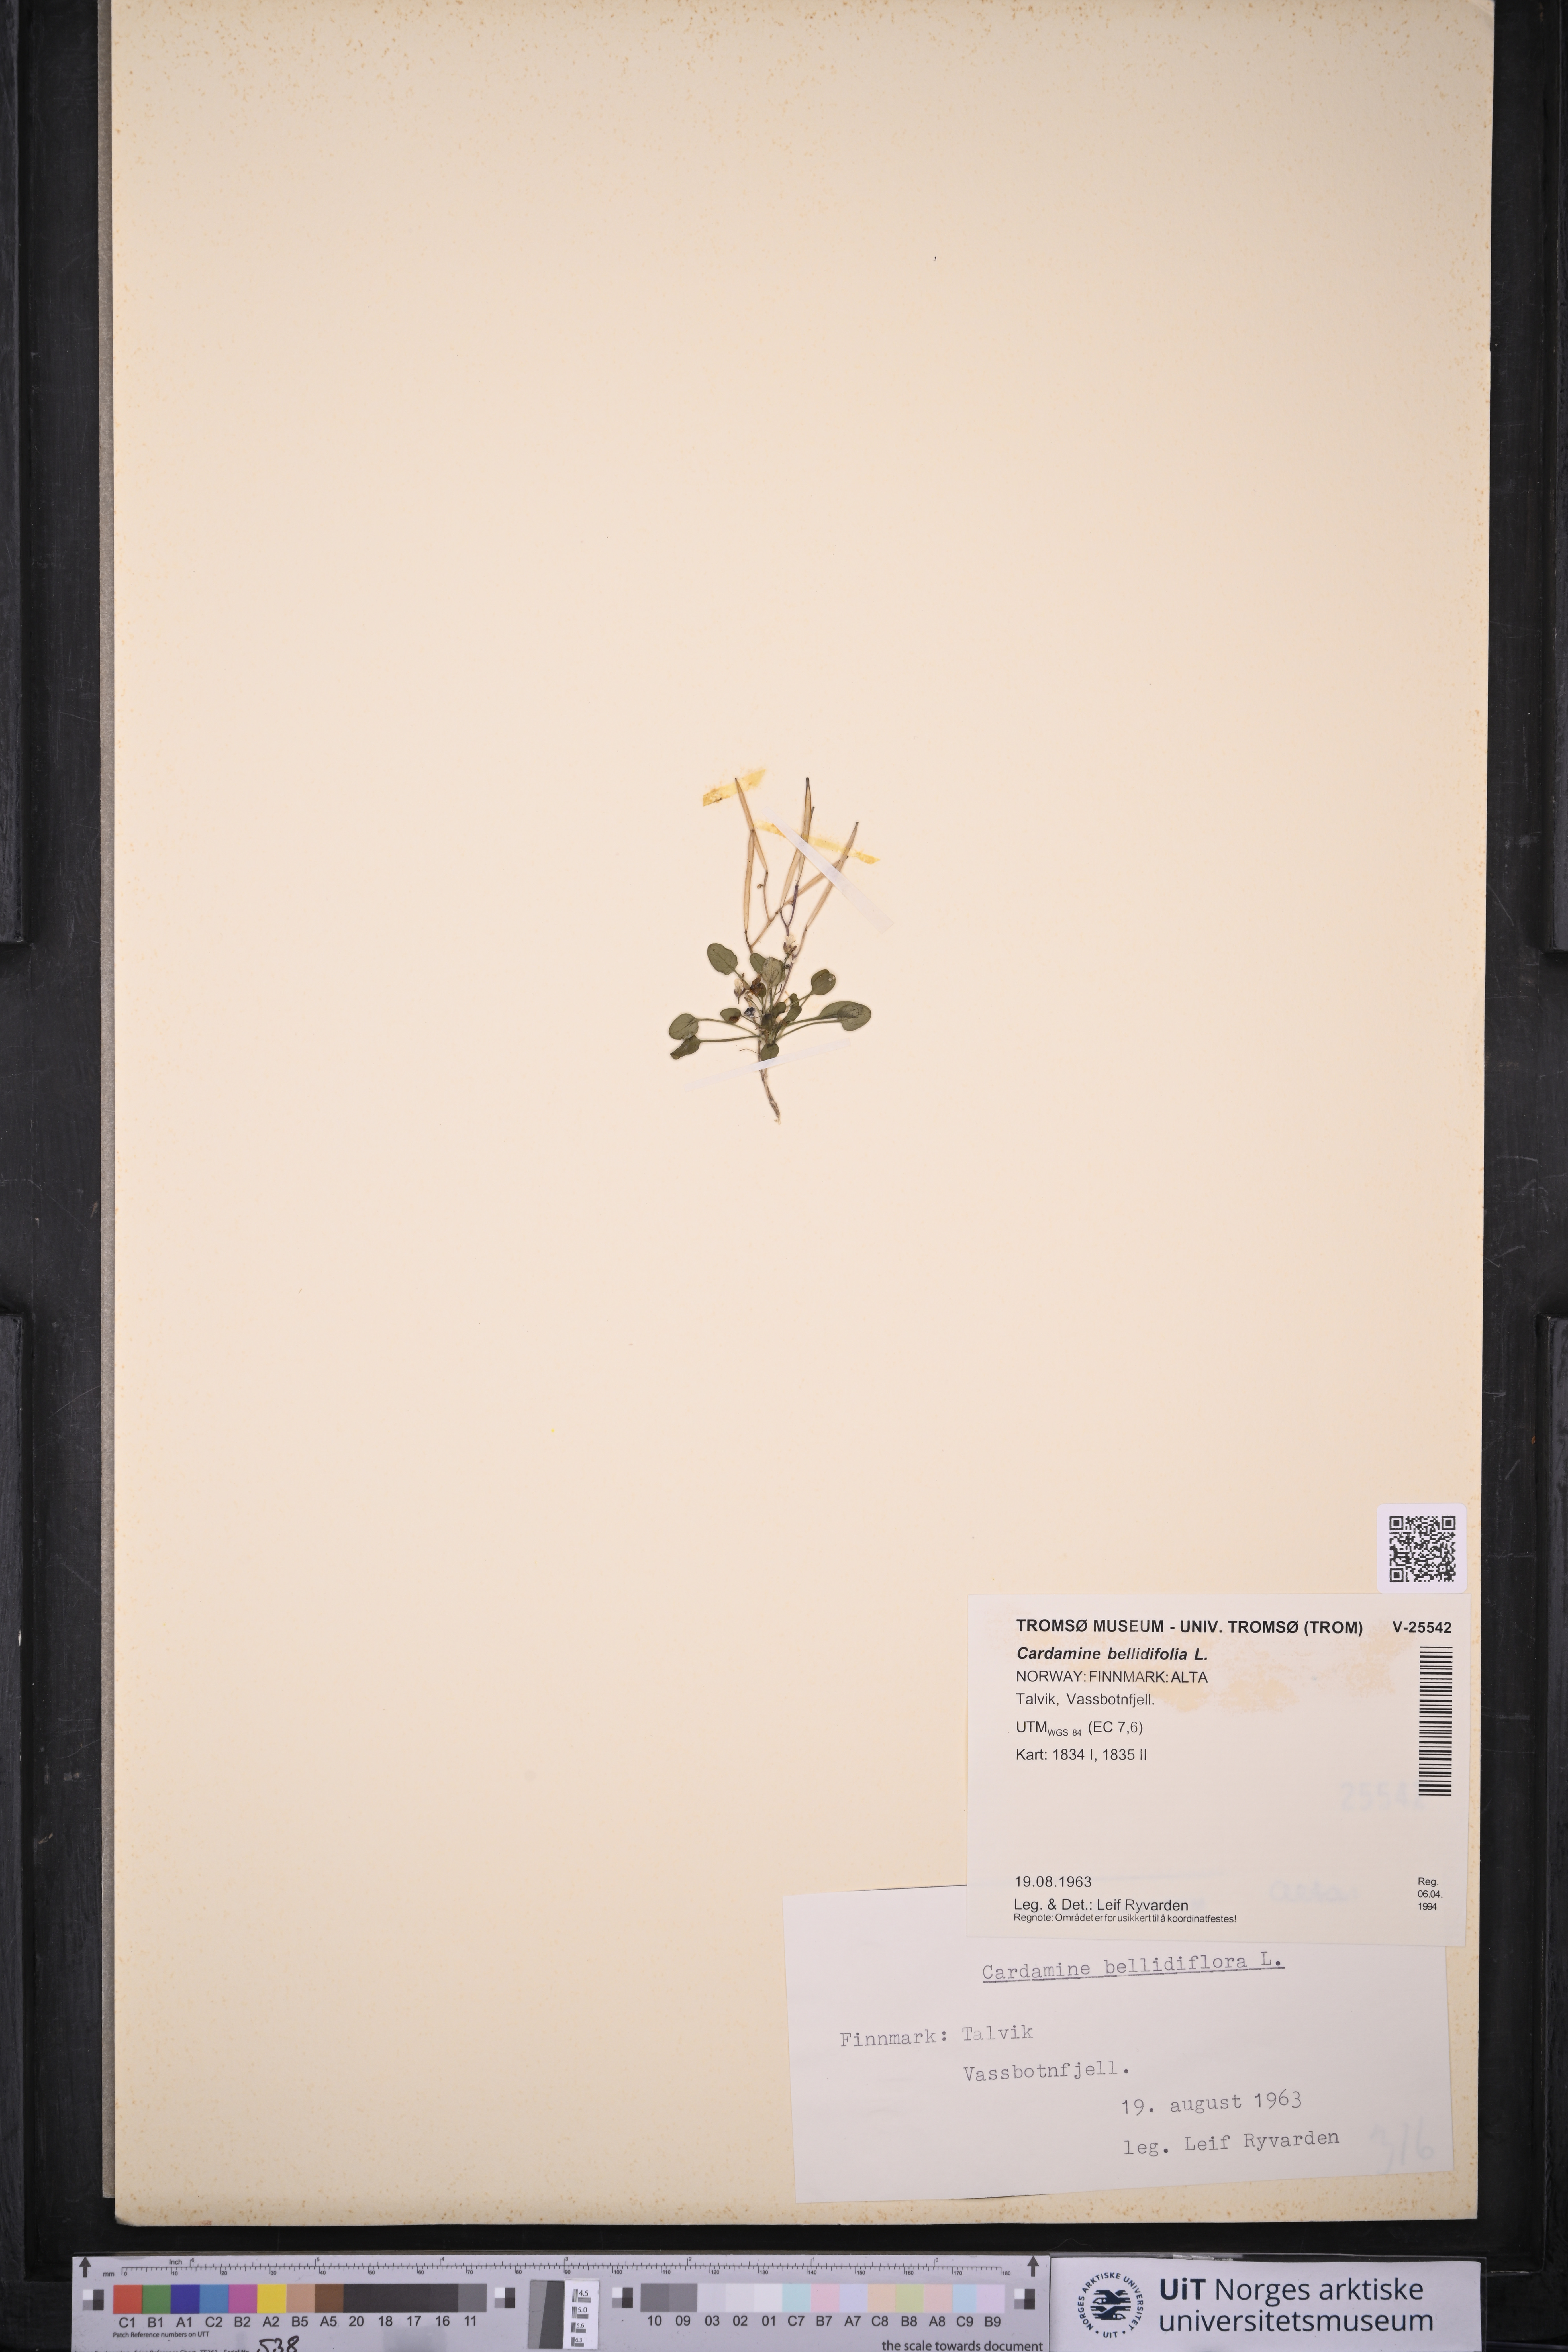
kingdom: Plantae
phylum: Tracheophyta
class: Magnoliopsida
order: Brassicales
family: Brassicaceae
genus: Cardamine
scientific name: Cardamine bellidifolia
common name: Alpine bittercress
